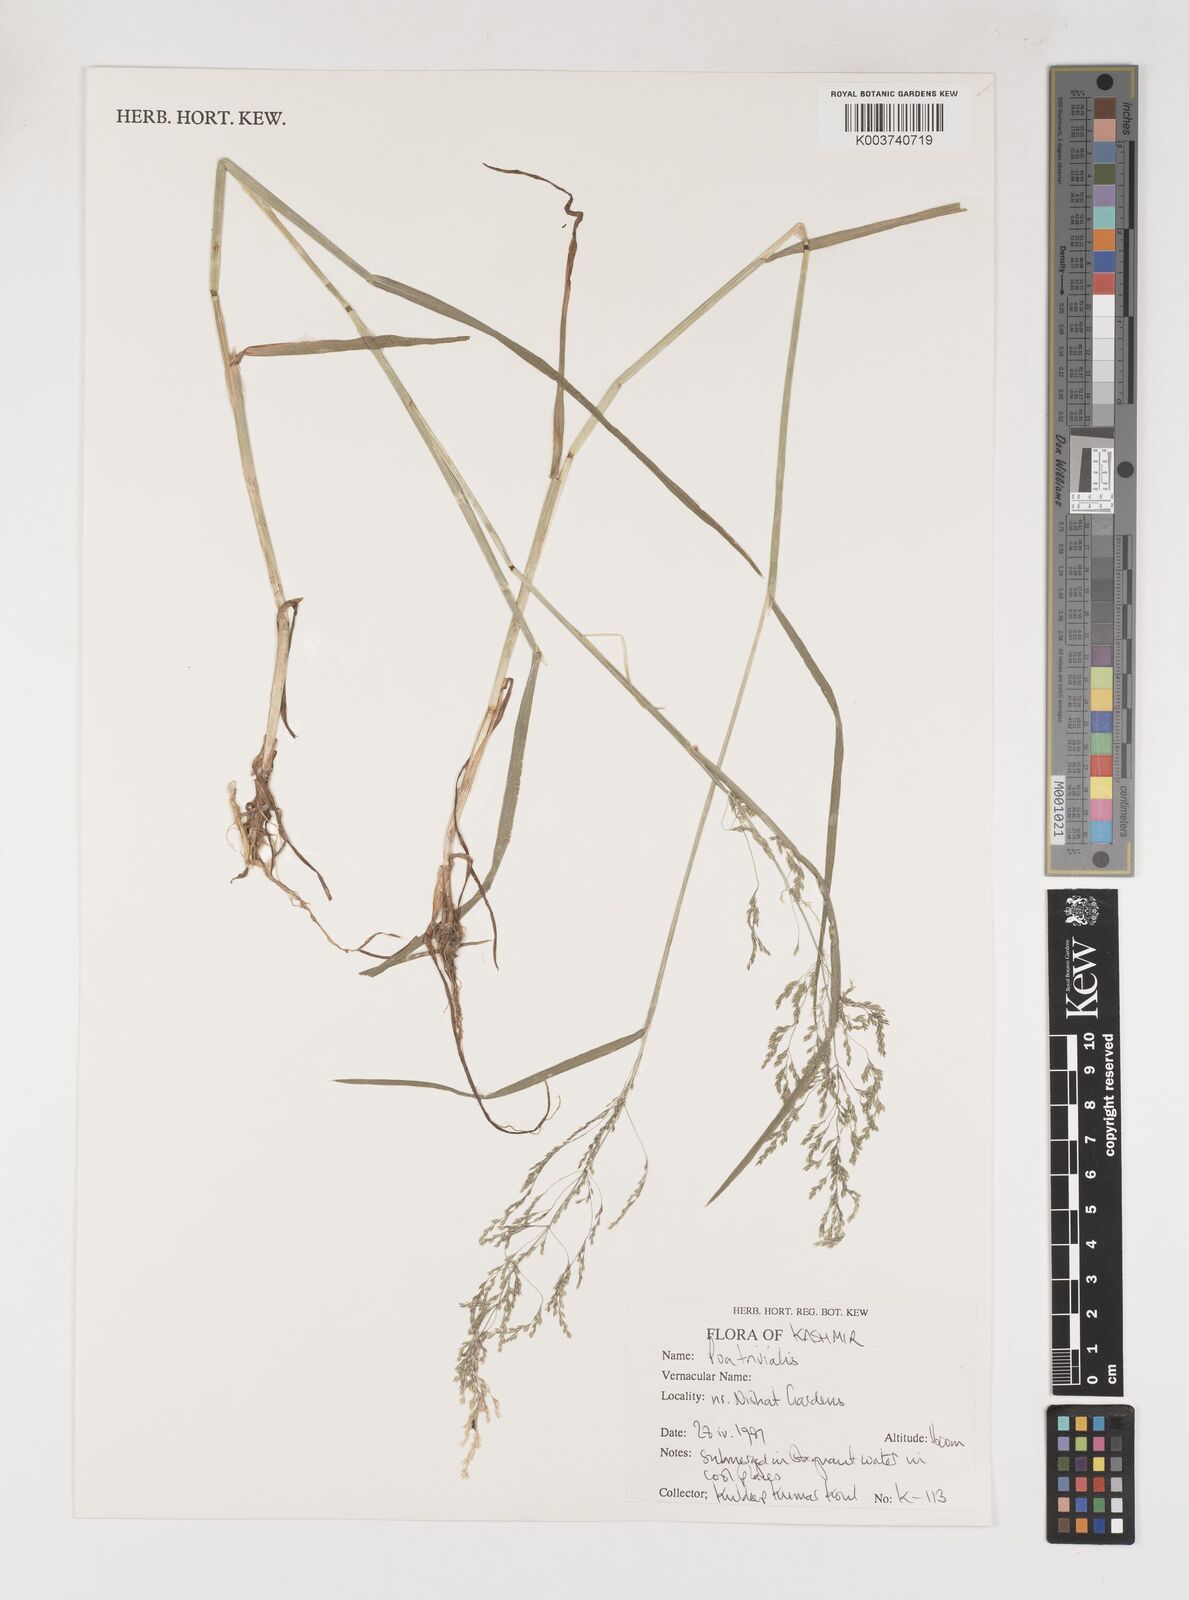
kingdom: Plantae
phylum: Tracheophyta
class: Liliopsida
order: Poales
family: Poaceae
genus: Poa
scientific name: Poa trivialis
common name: Rough bluegrass
